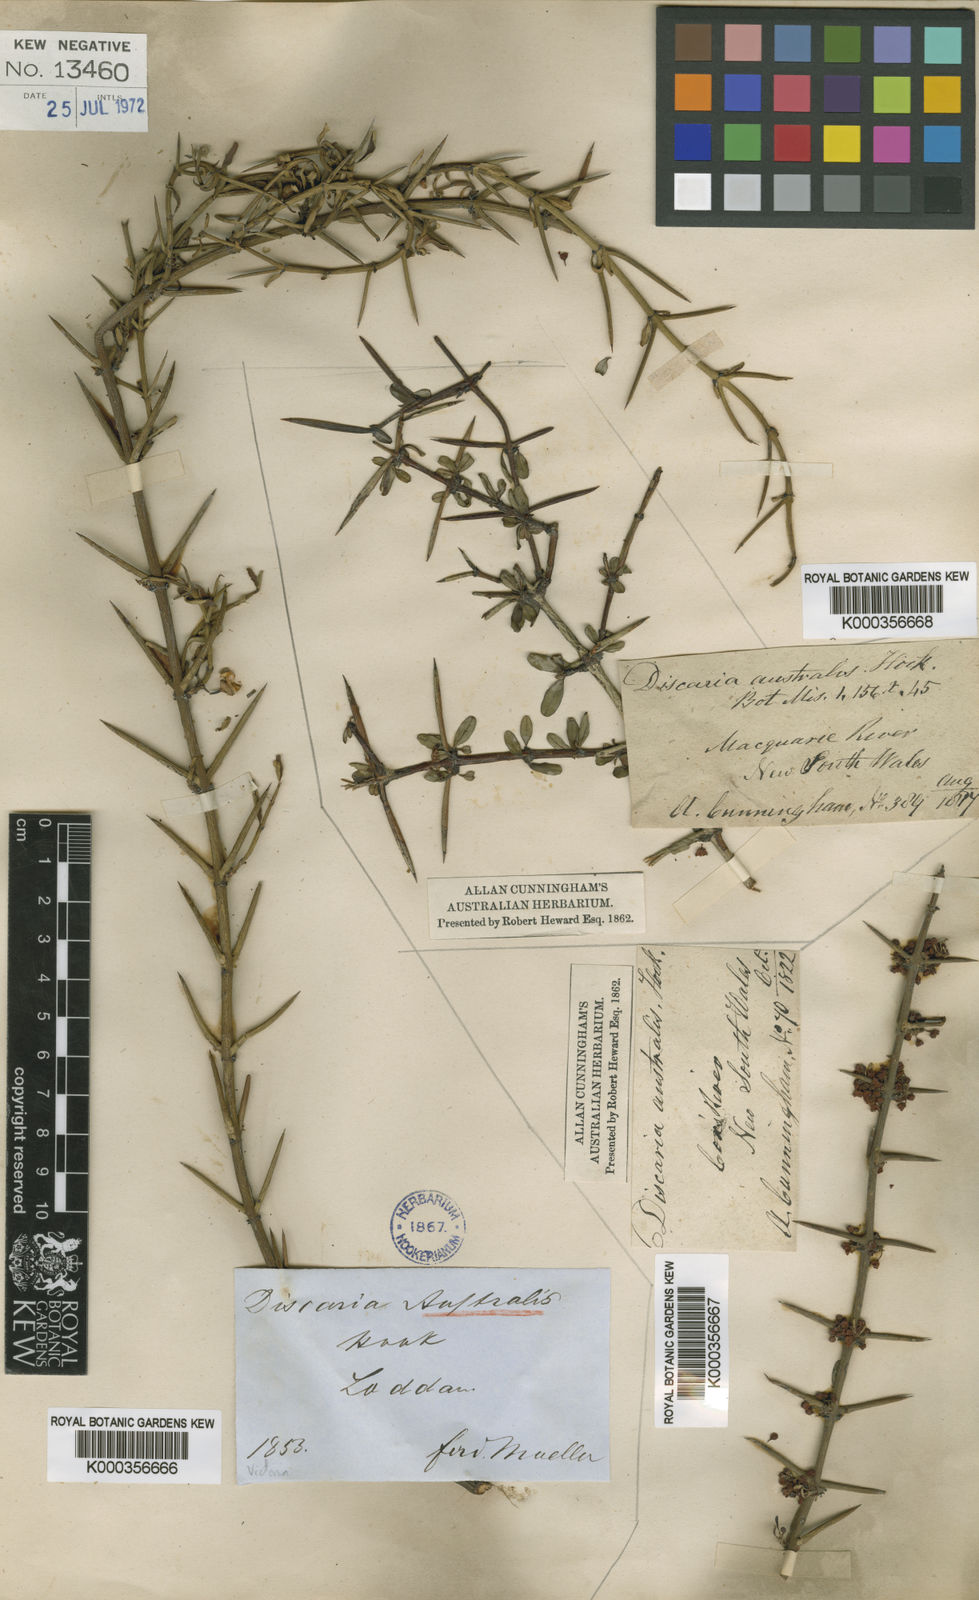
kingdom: Plantae
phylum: Tracheophyta
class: Magnoliopsida
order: Rosales
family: Rhamnaceae
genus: Discaria
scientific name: Discaria pubescens
